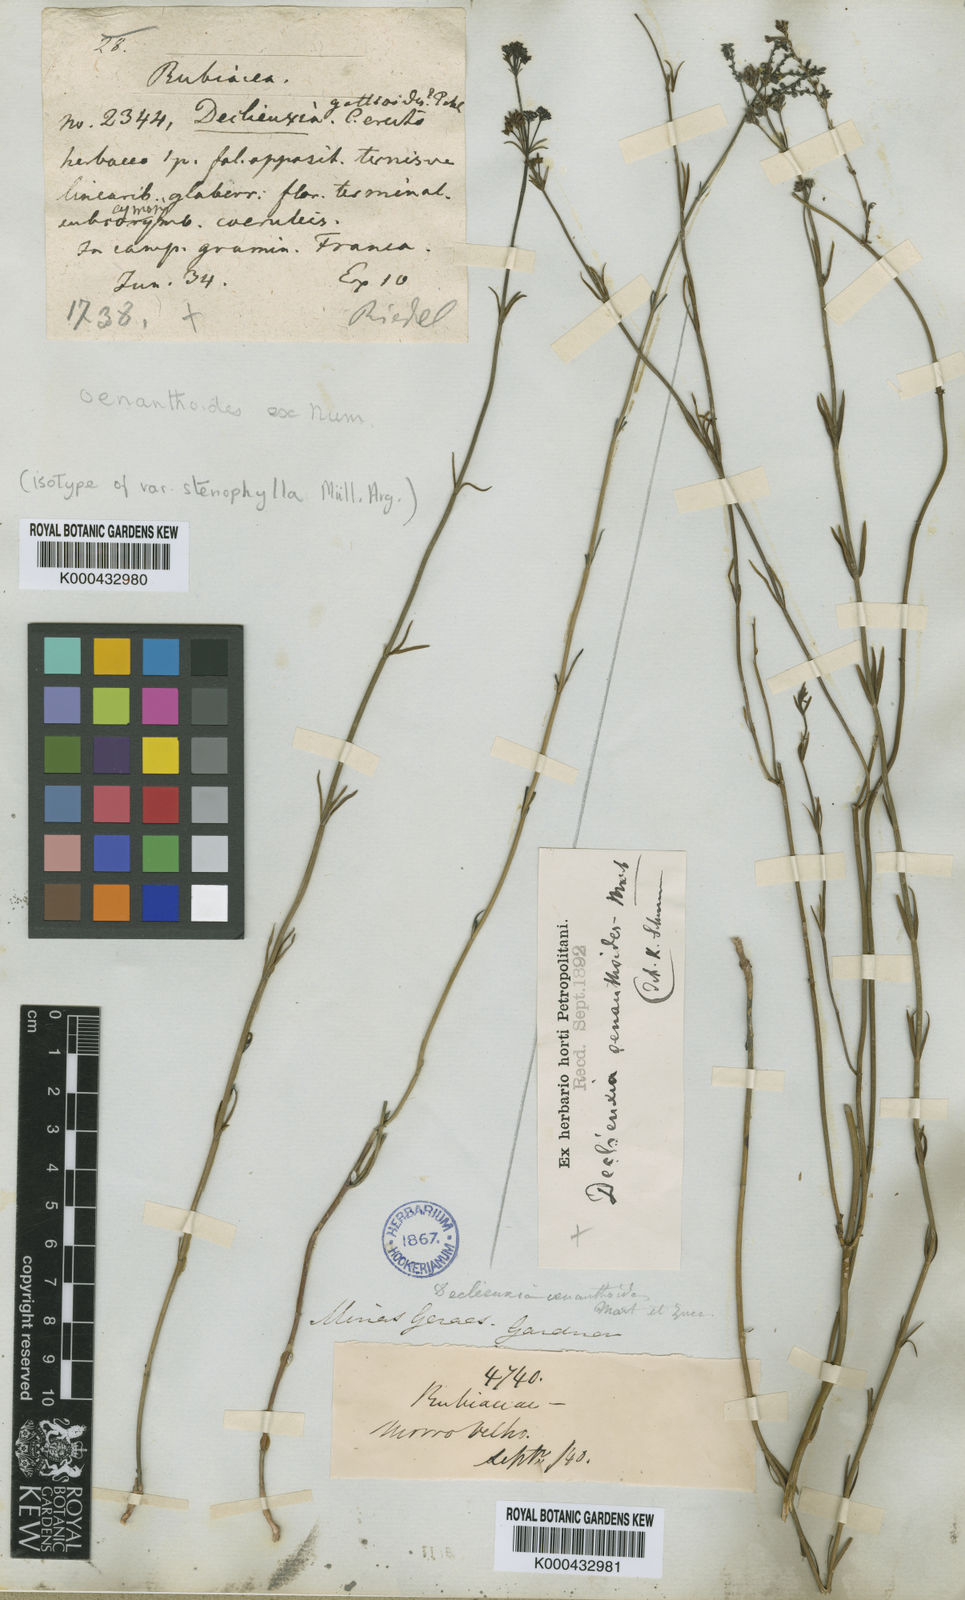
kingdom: Plantae
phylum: Tracheophyta
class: Magnoliopsida
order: Gentianales
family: Rubiaceae
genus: Declieuxia
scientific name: Declieuxia
